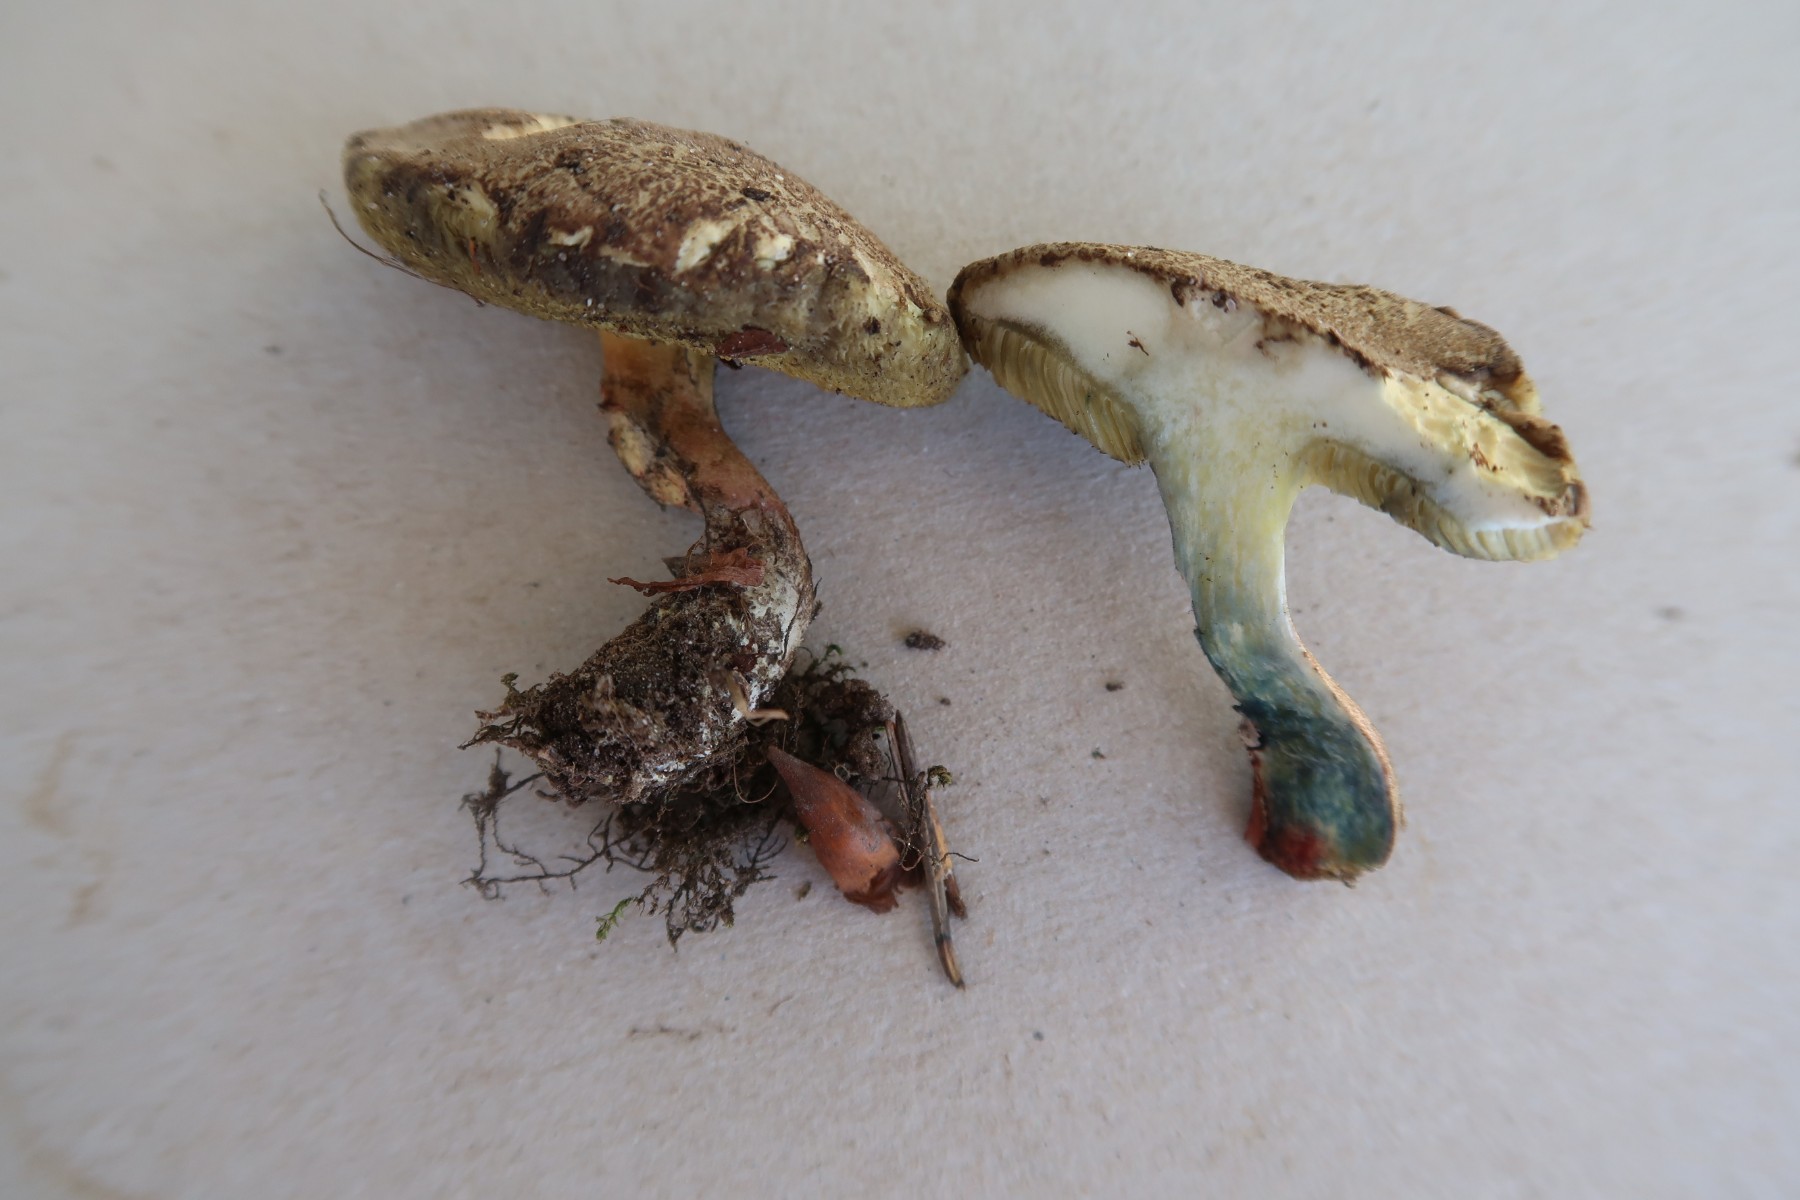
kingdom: Fungi
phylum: Basidiomycota
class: Agaricomycetes
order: Boletales
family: Boletaceae
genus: Xerocomellus
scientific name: Xerocomellus cisalpinus
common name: finsprukken rørhat
